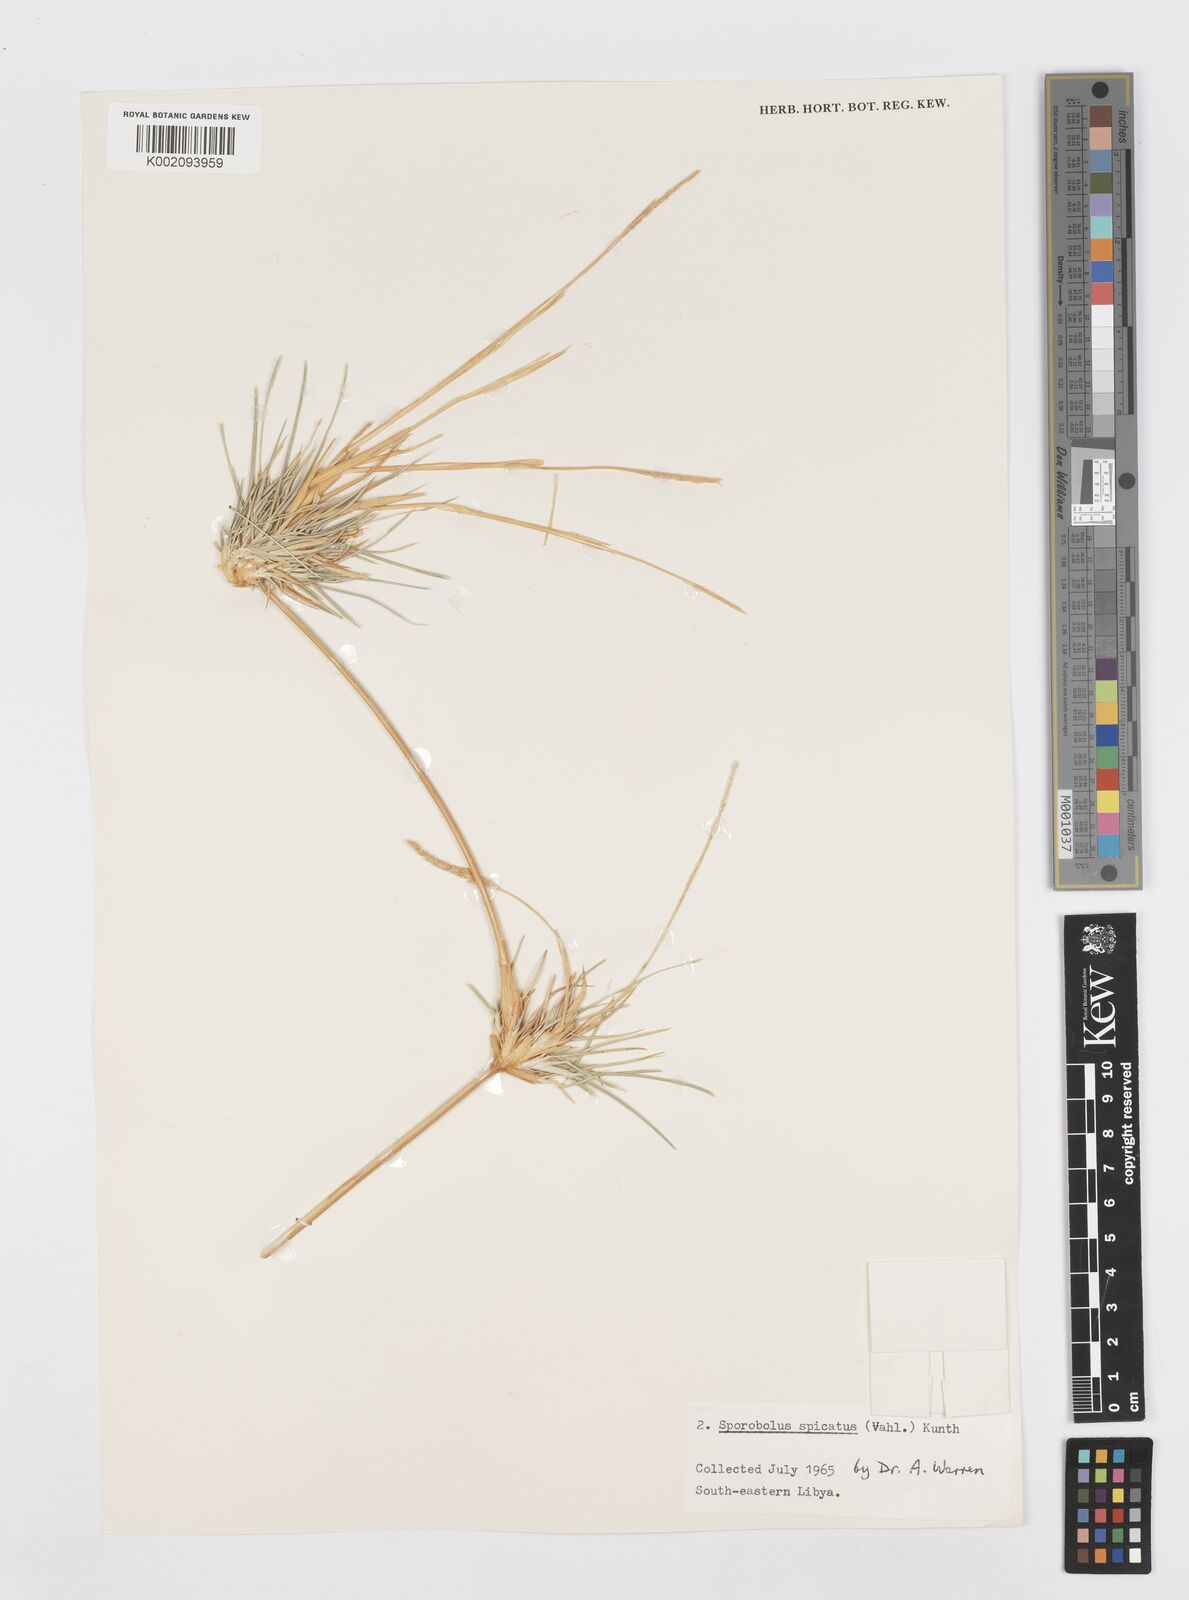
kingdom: Plantae
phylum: Tracheophyta
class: Liliopsida
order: Poales
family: Poaceae
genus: Sporobolus
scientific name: Sporobolus spicatus
